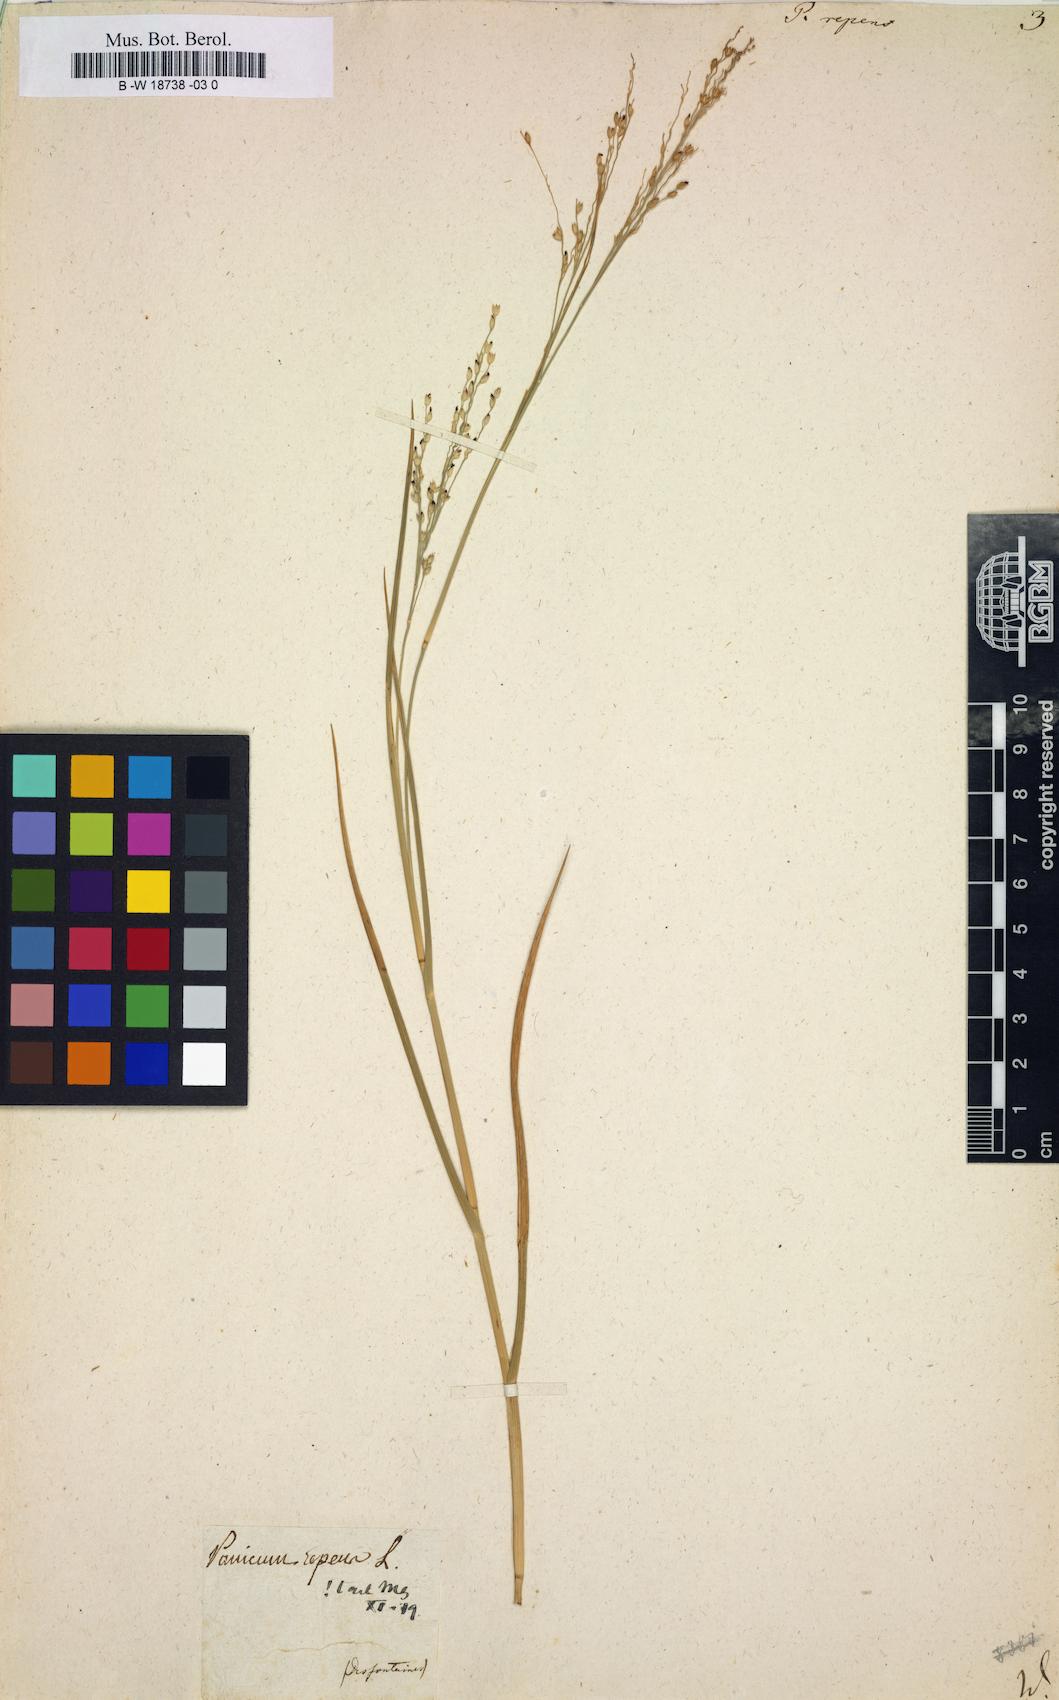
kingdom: Plantae
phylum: Tracheophyta
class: Liliopsida
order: Poales
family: Poaceae
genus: Panicum
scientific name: Panicum repens
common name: Torpedo grass
